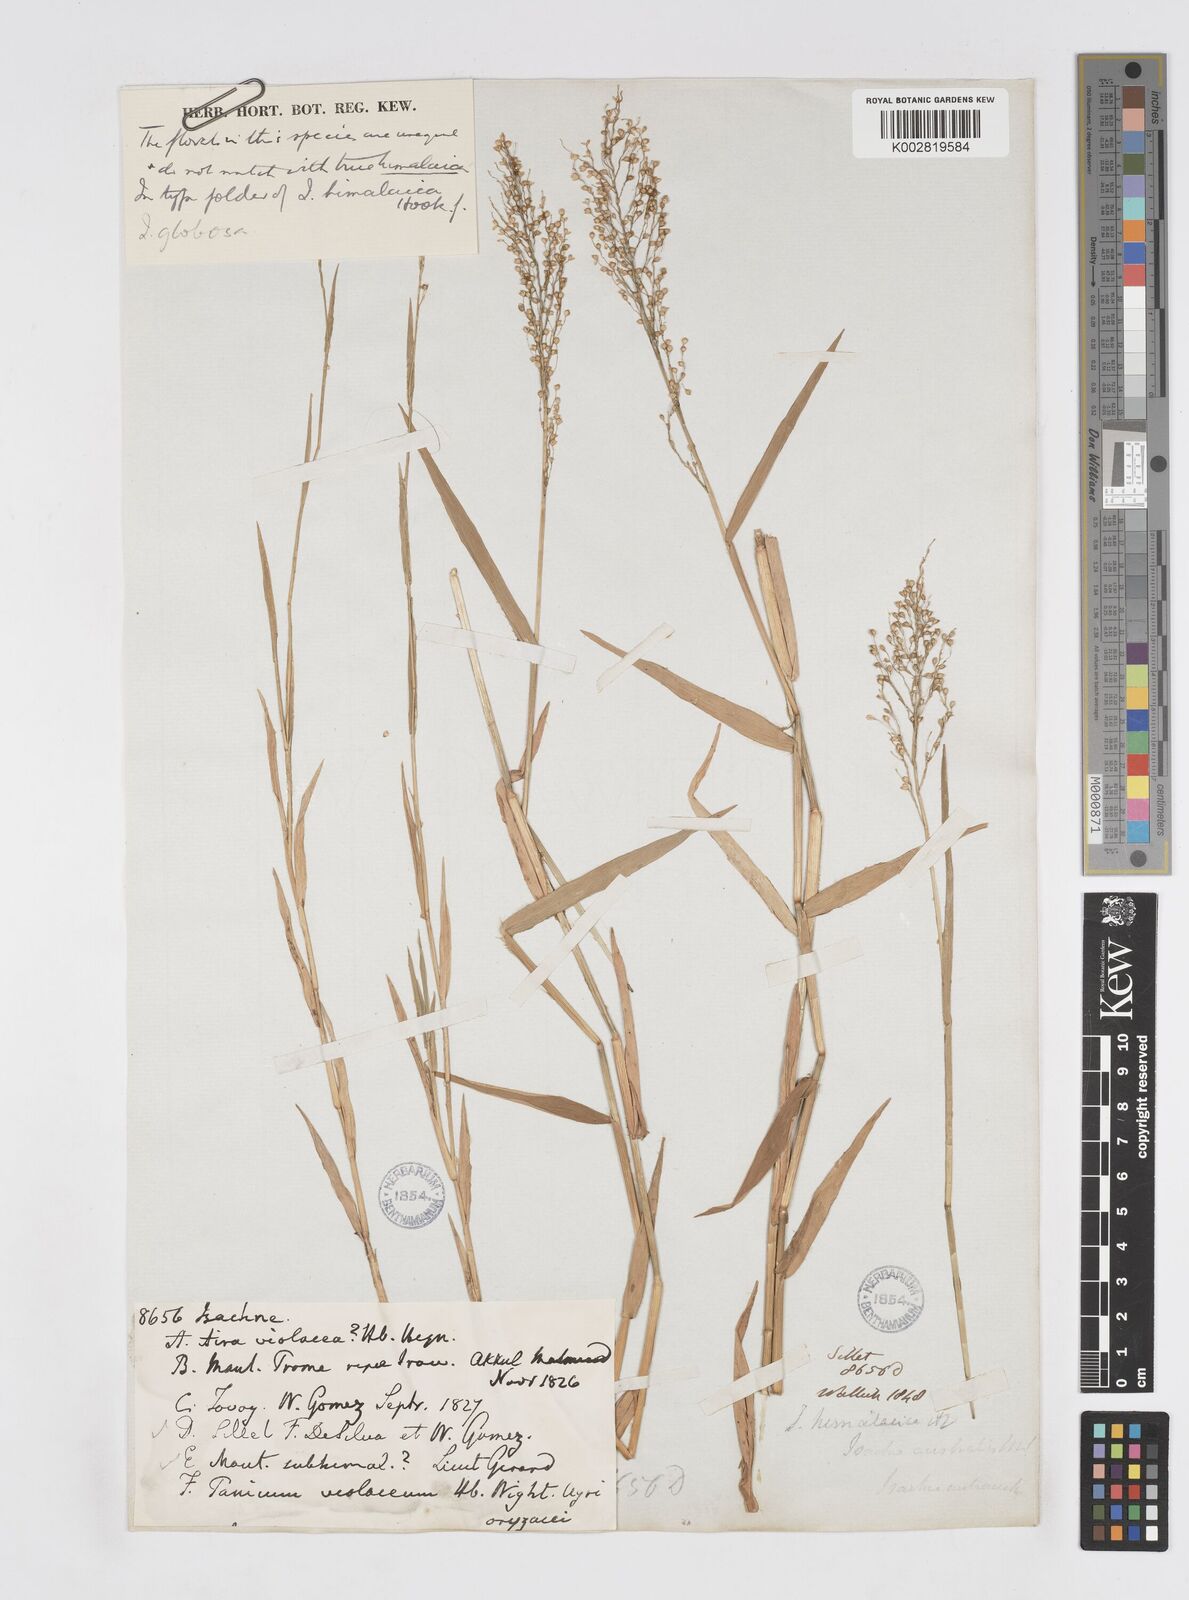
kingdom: Plantae
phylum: Tracheophyta
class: Liliopsida
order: Poales
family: Poaceae
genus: Isachne
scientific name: Isachne himalaica
